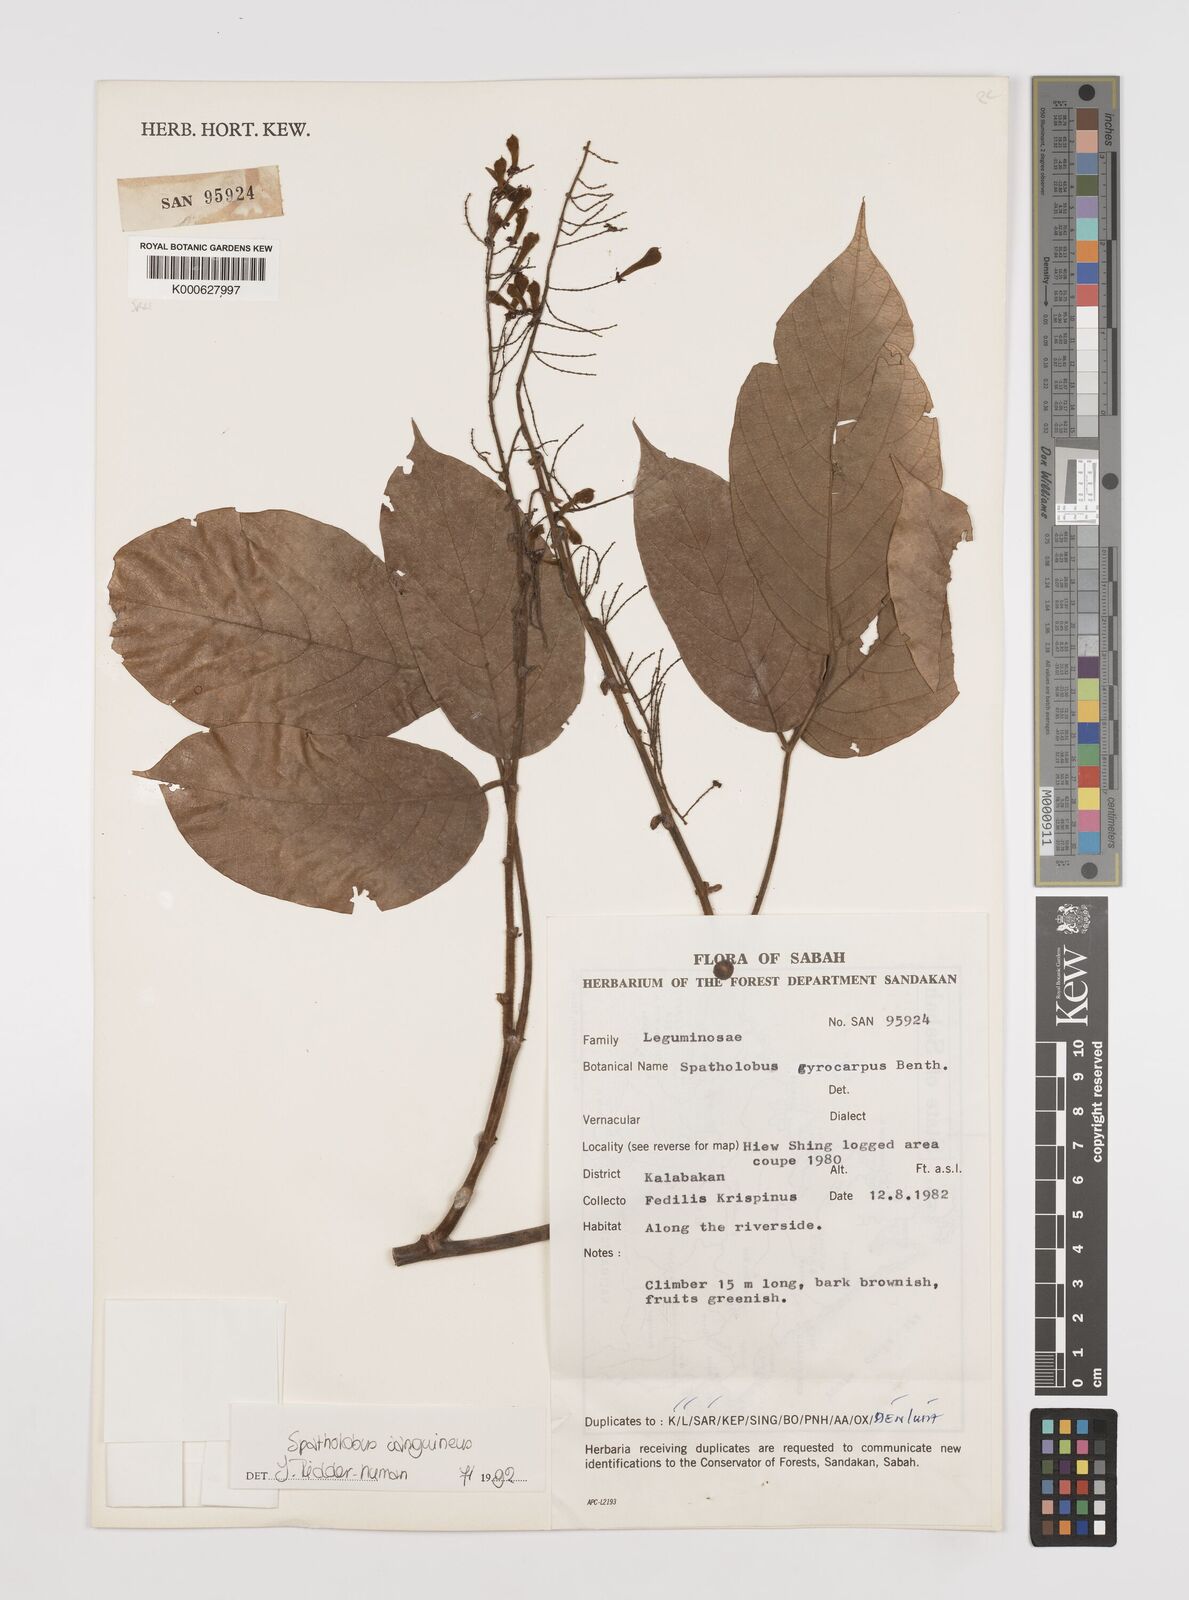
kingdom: Plantae
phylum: Tracheophyta
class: Magnoliopsida
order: Fabales
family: Fabaceae
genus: Spatholobus
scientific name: Spatholobus
